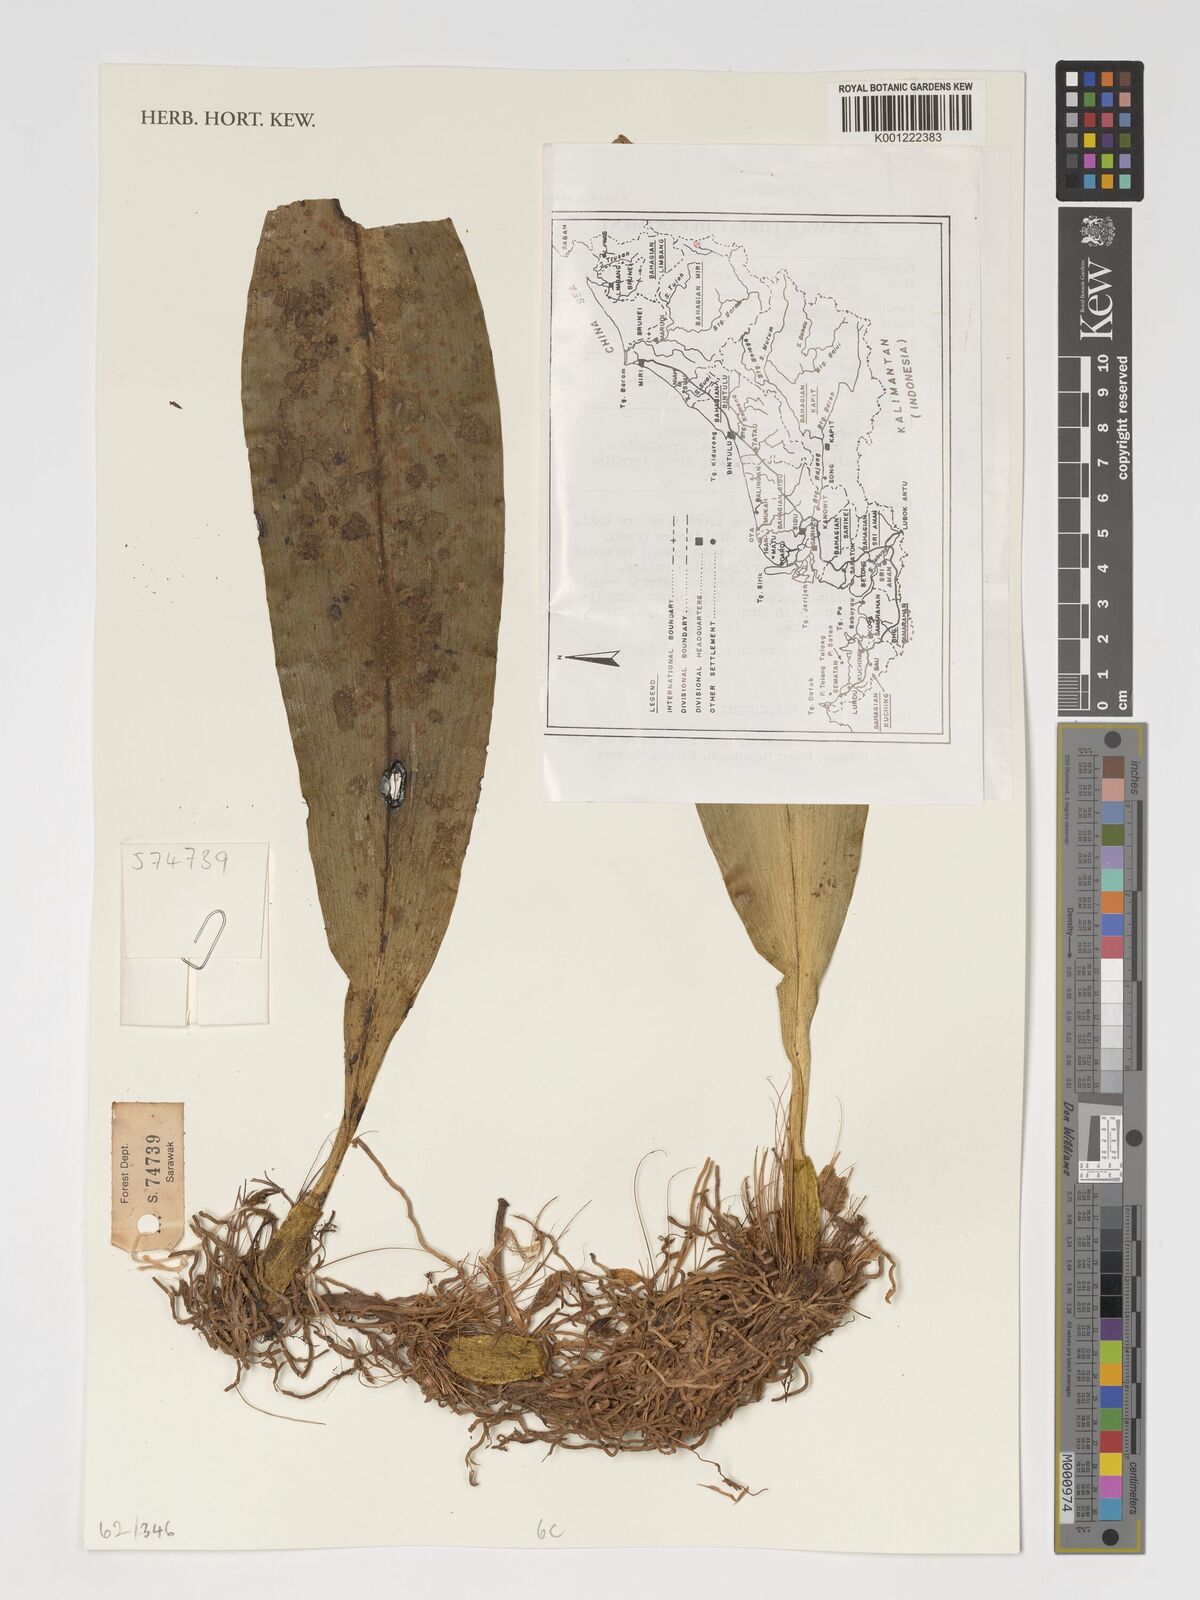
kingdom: Plantae
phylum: Tracheophyta
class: Liliopsida
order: Asparagales
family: Orchidaceae
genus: Bulbophyllum
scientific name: Bulbophyllum
